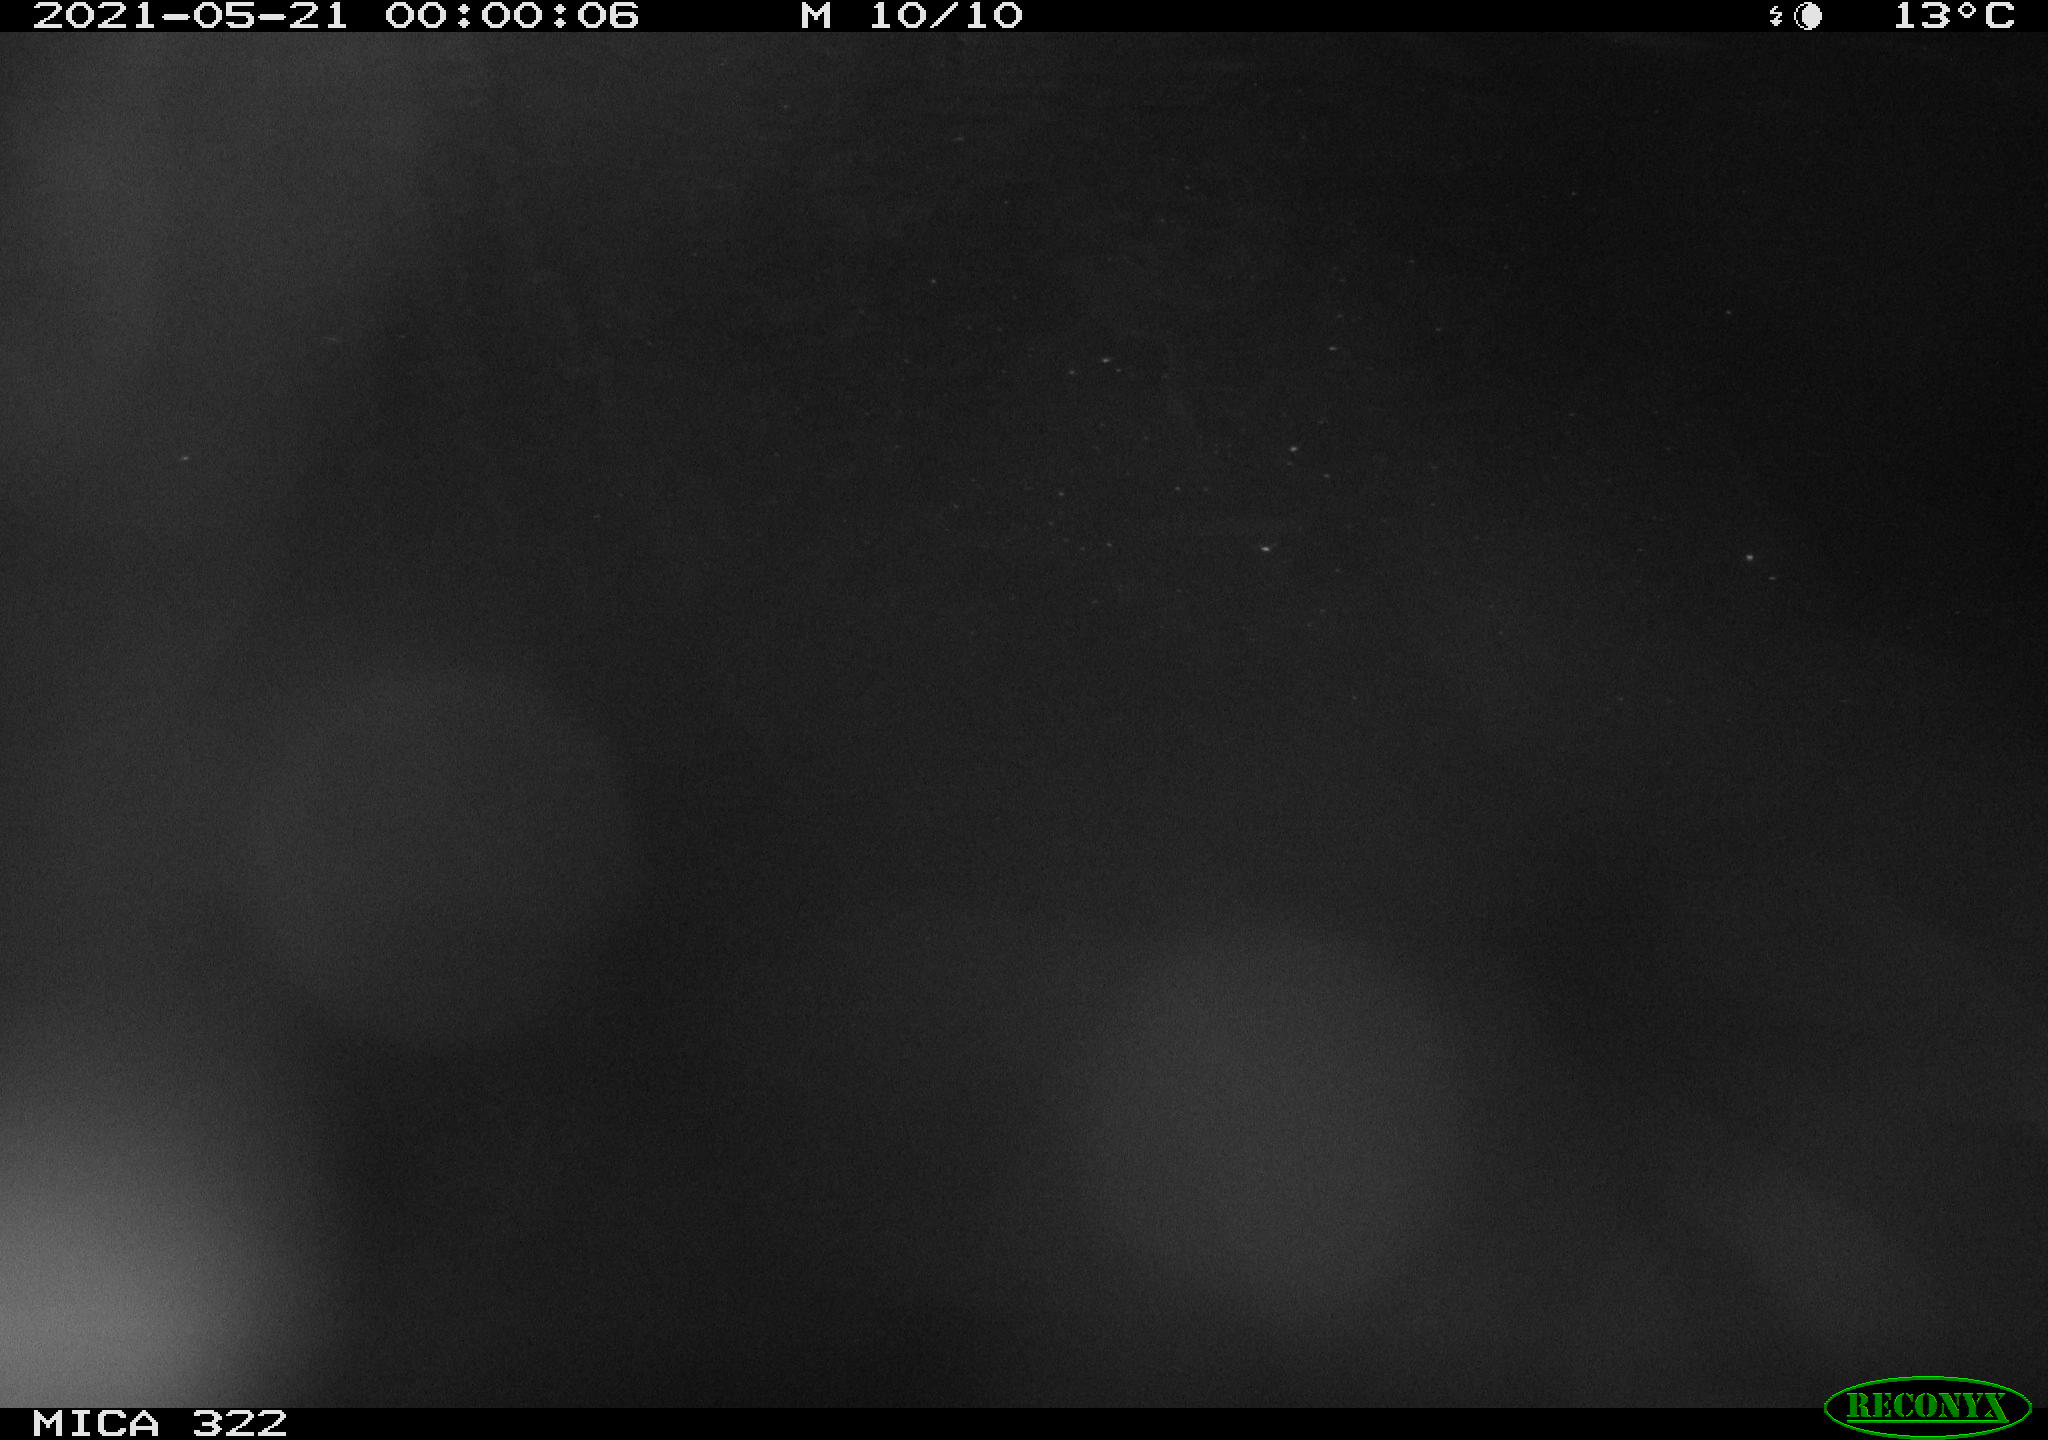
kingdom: Animalia
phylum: Chordata
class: Aves
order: Anseriformes
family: Anatidae
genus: Anas
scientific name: Anas platyrhynchos
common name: Mallard
